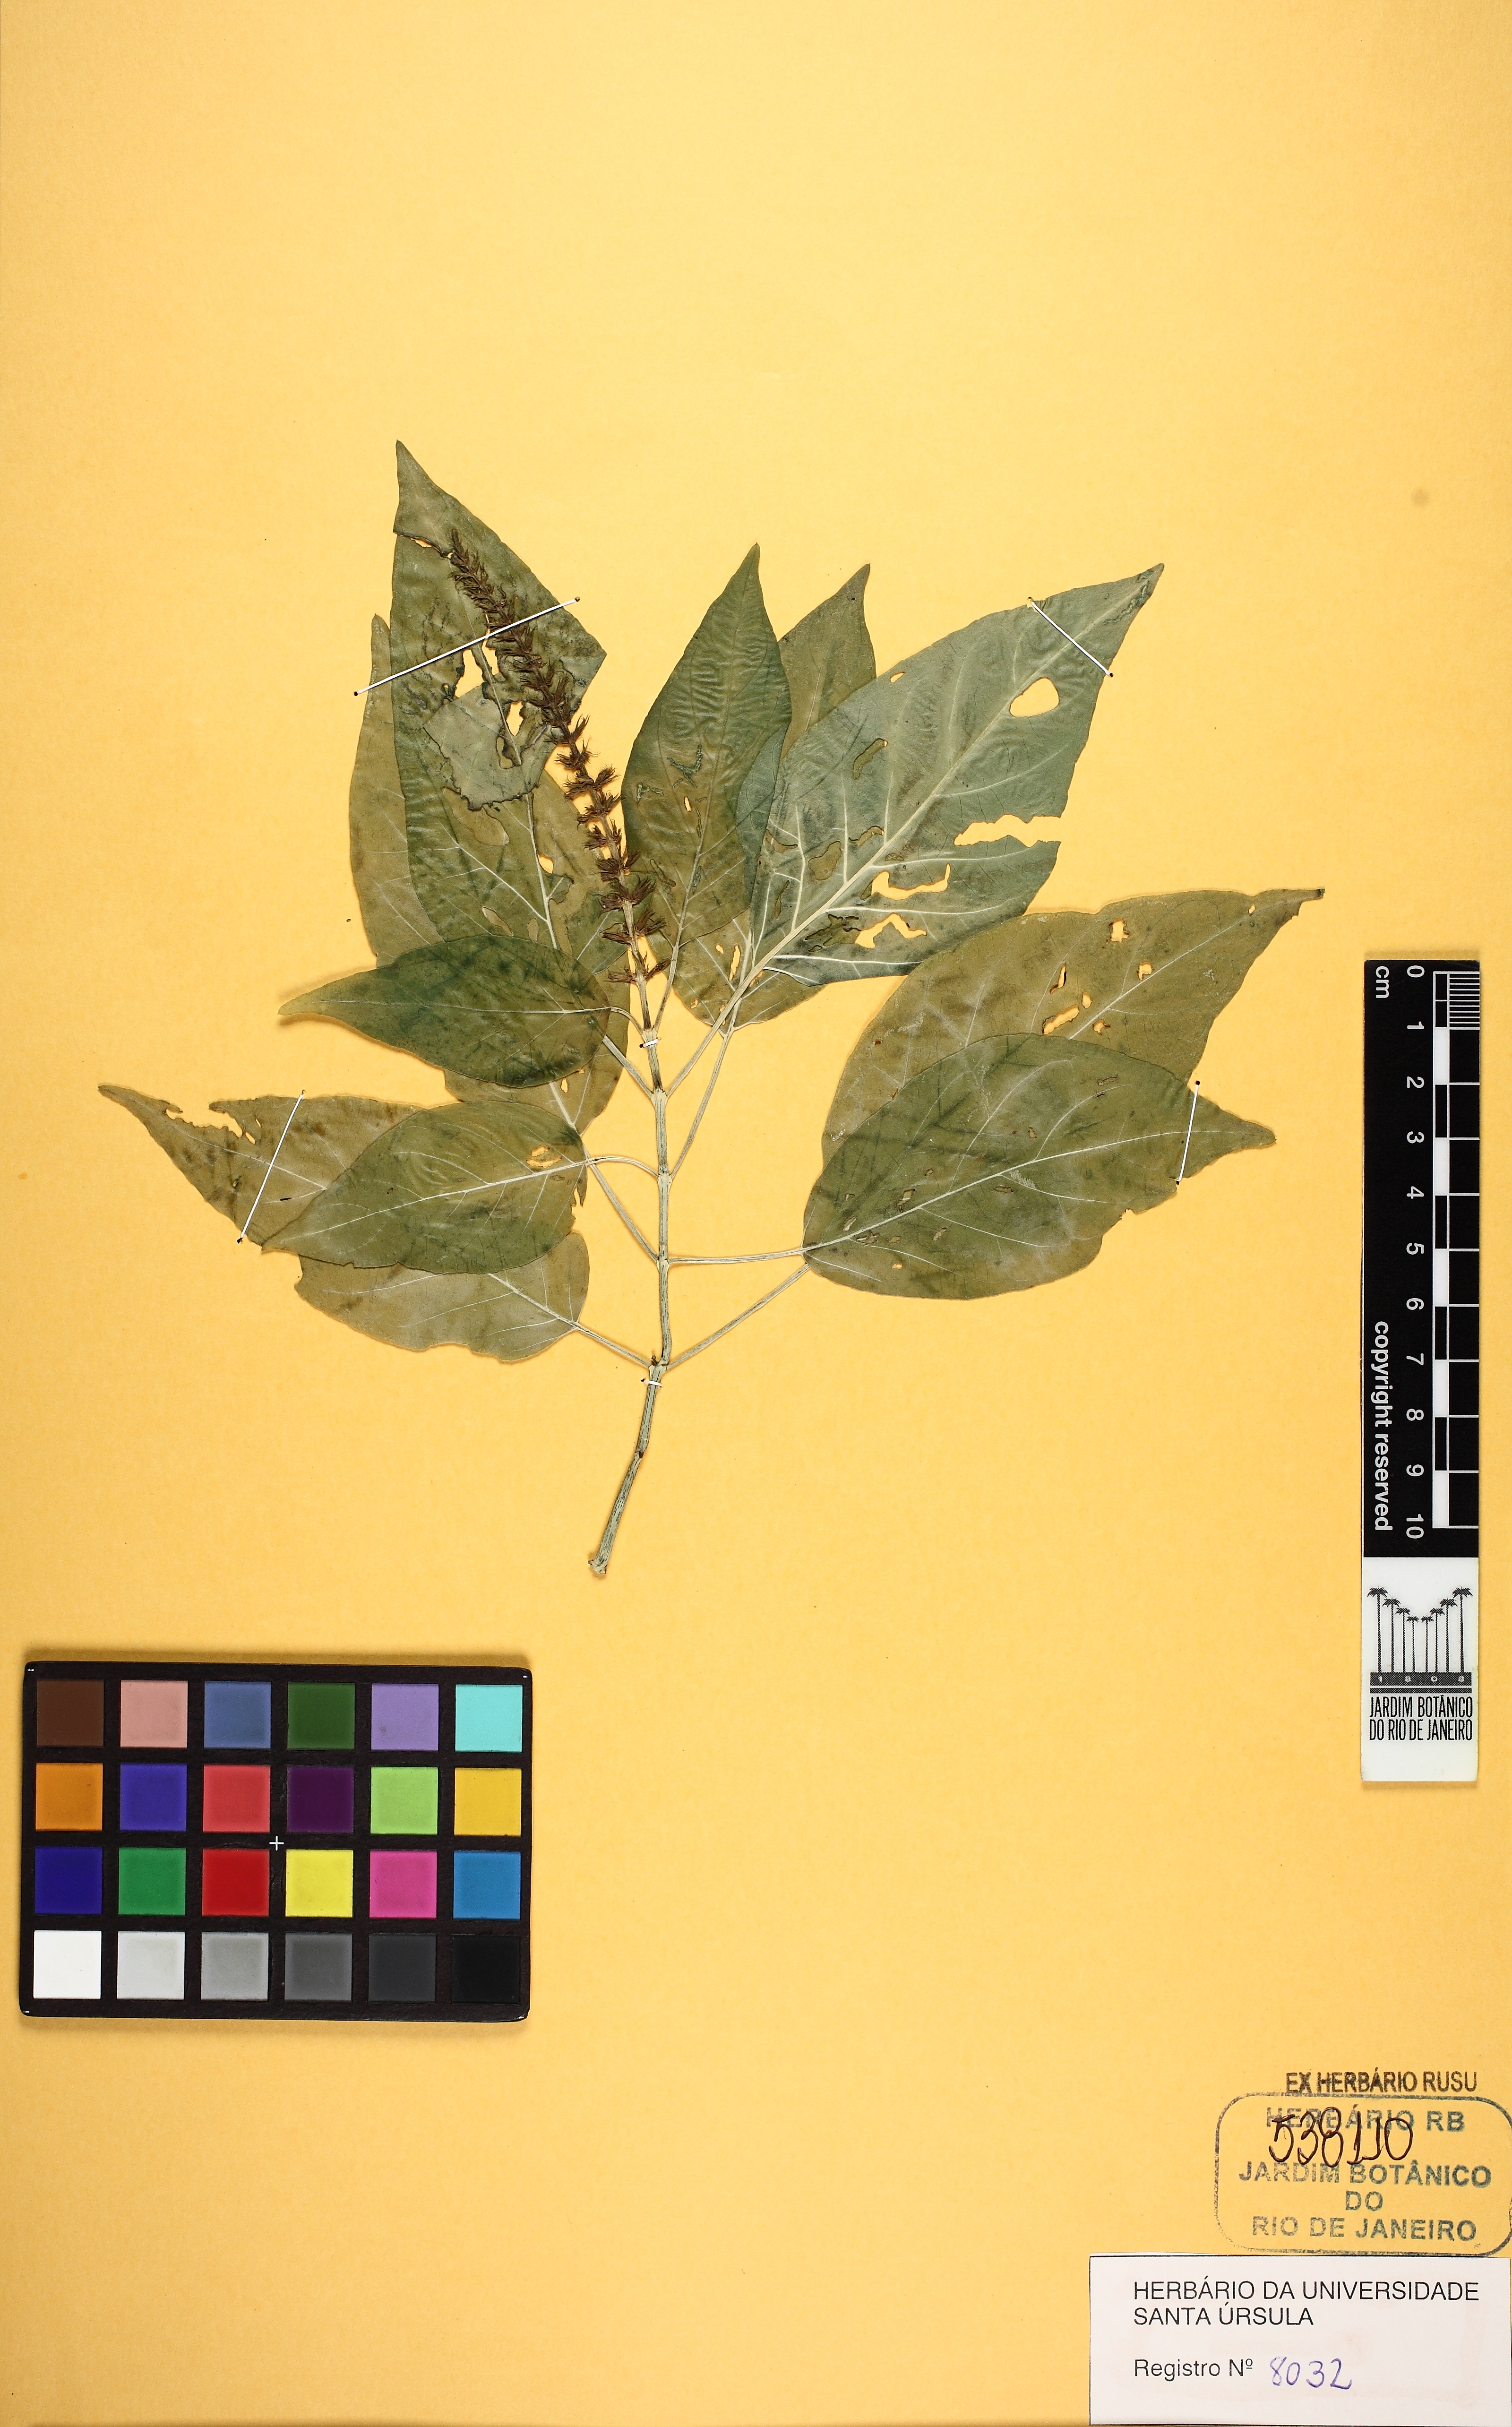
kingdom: Plantae
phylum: Tracheophyta
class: Magnoliopsida
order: Lamiales
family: Acanthaceae
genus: Schaueria
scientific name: Schaueria litoralis
